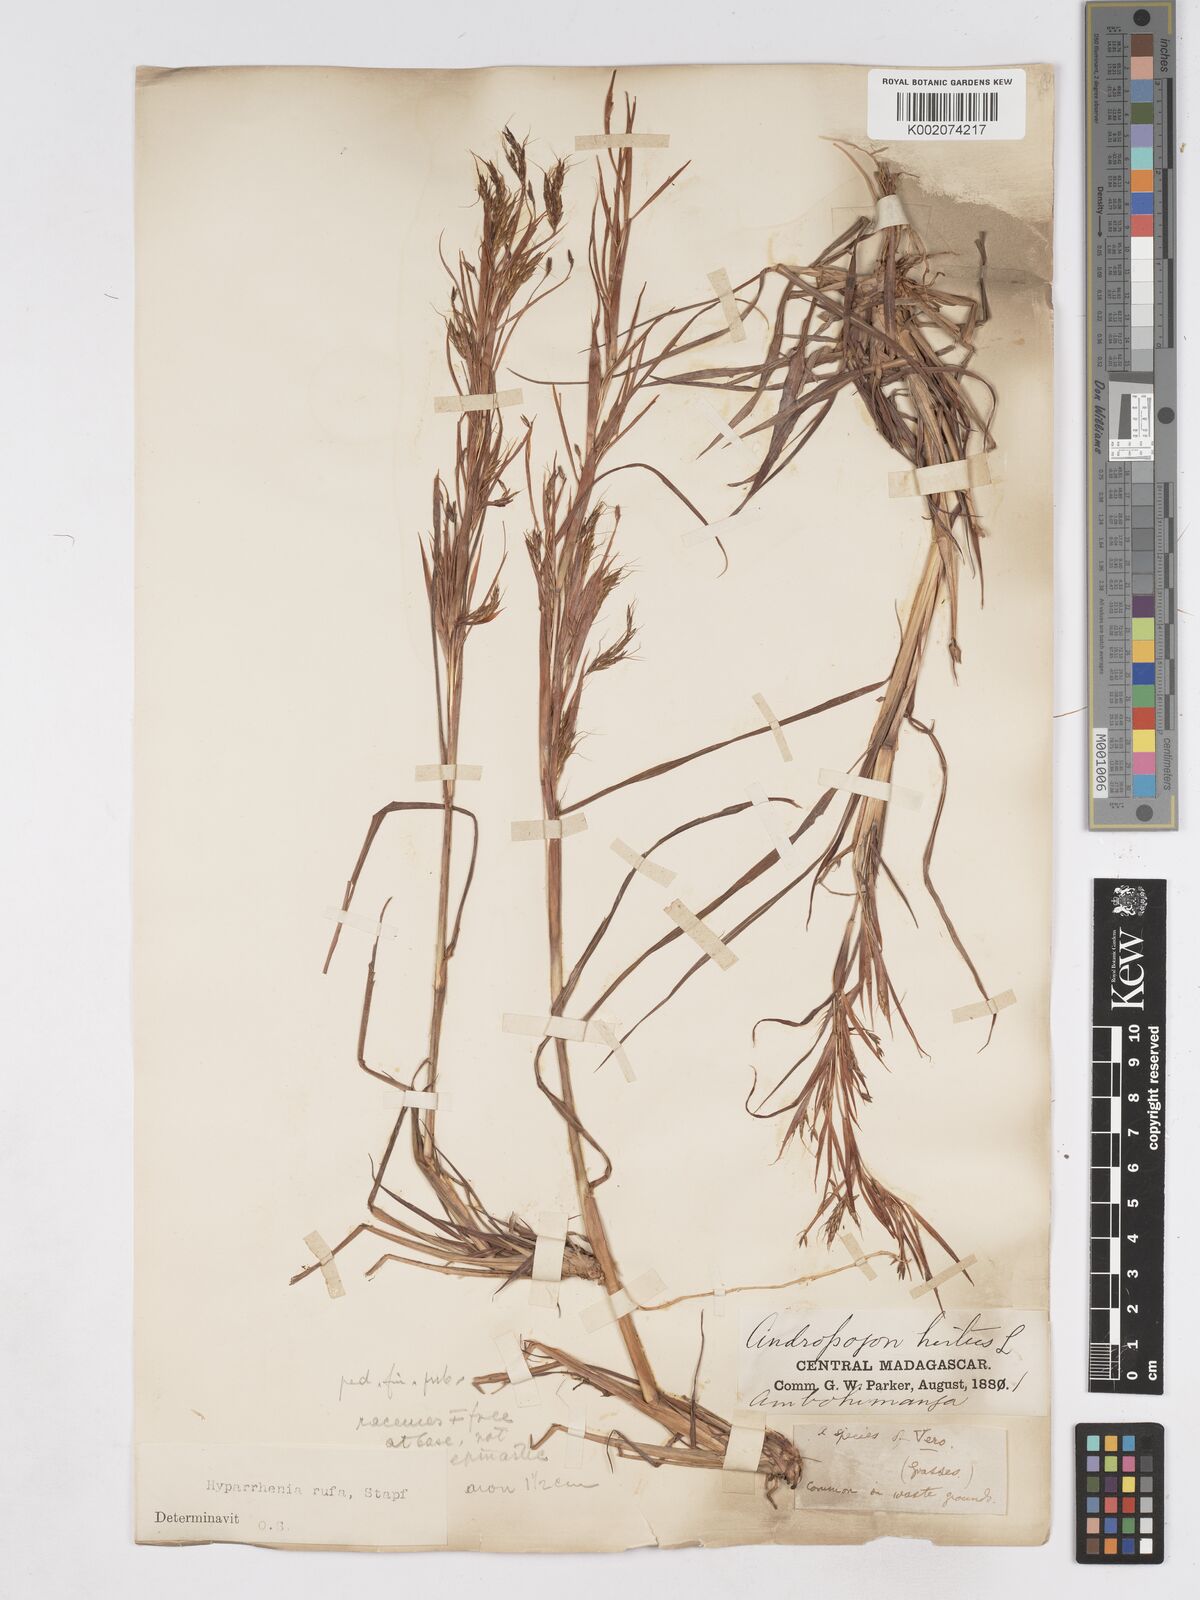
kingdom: Plantae
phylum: Tracheophyta
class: Liliopsida
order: Poales
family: Poaceae
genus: Hyparrhenia
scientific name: Hyparrhenia rufa
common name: Jaraguagrass
